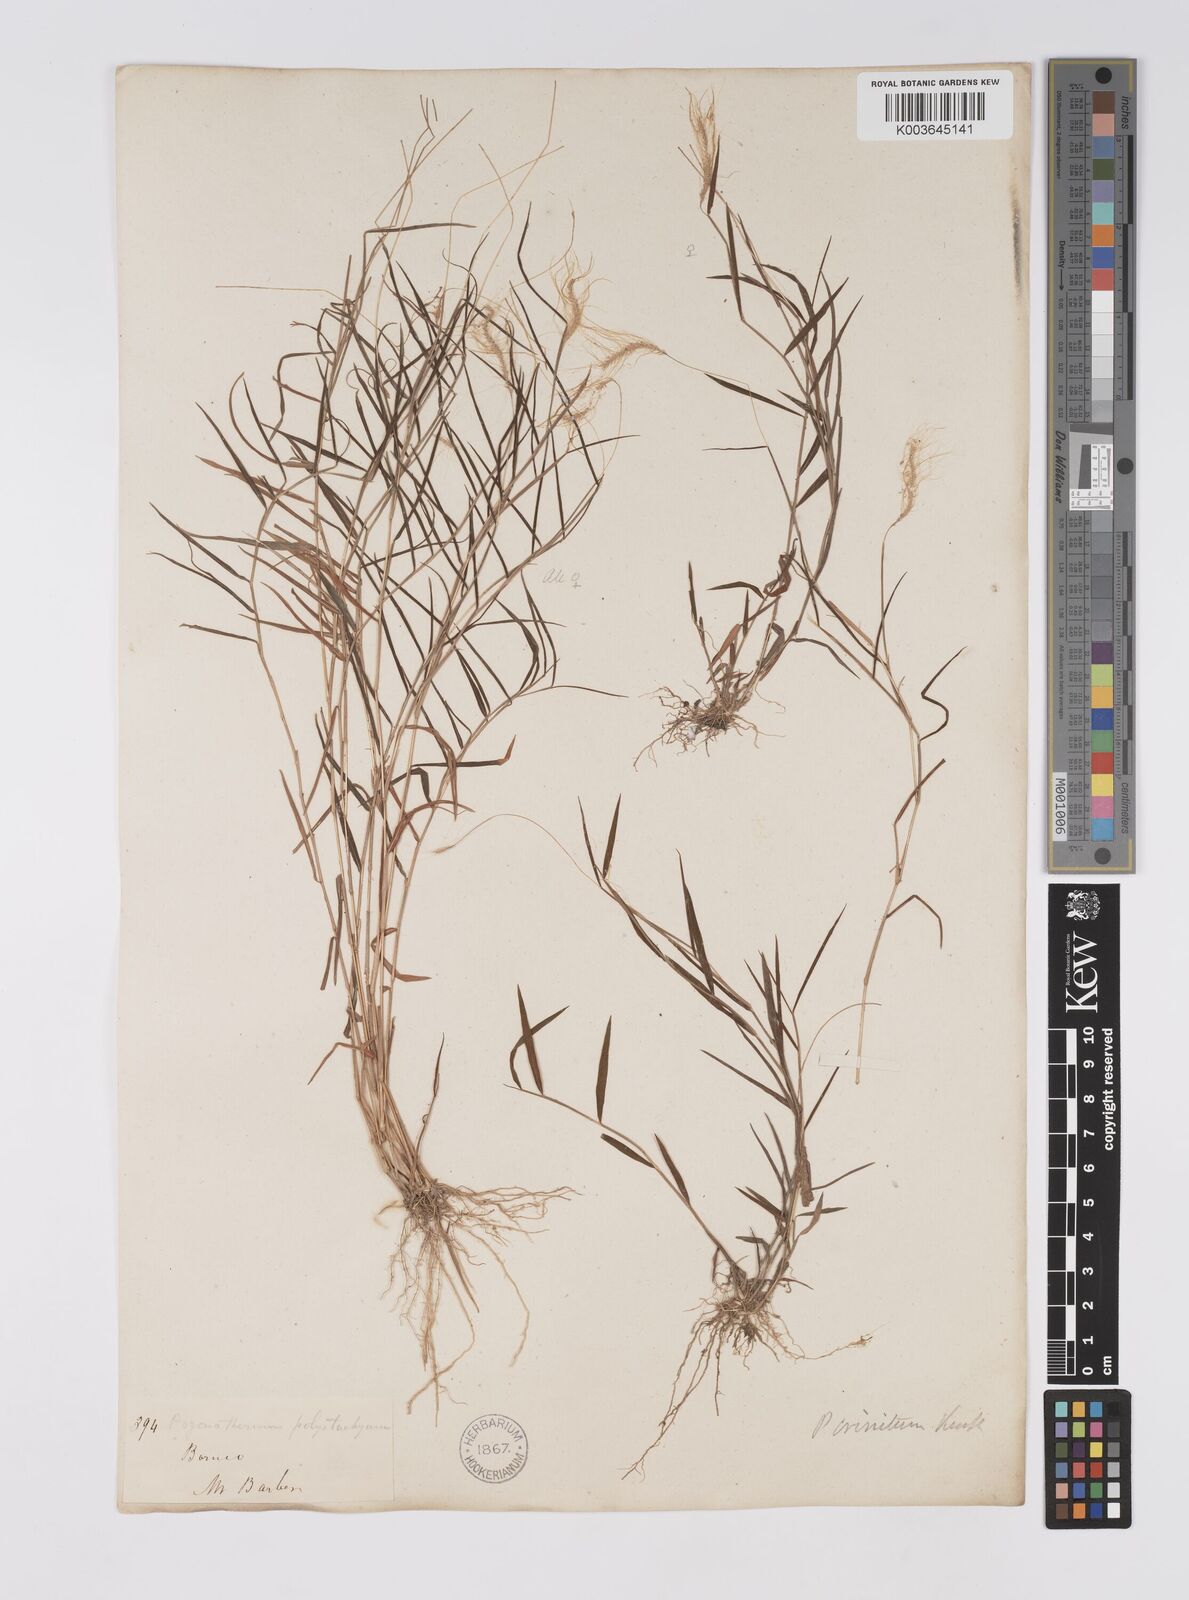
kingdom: Plantae
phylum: Tracheophyta
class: Liliopsida
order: Poales
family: Poaceae
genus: Pogonatherum
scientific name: Pogonatherum crinitum
